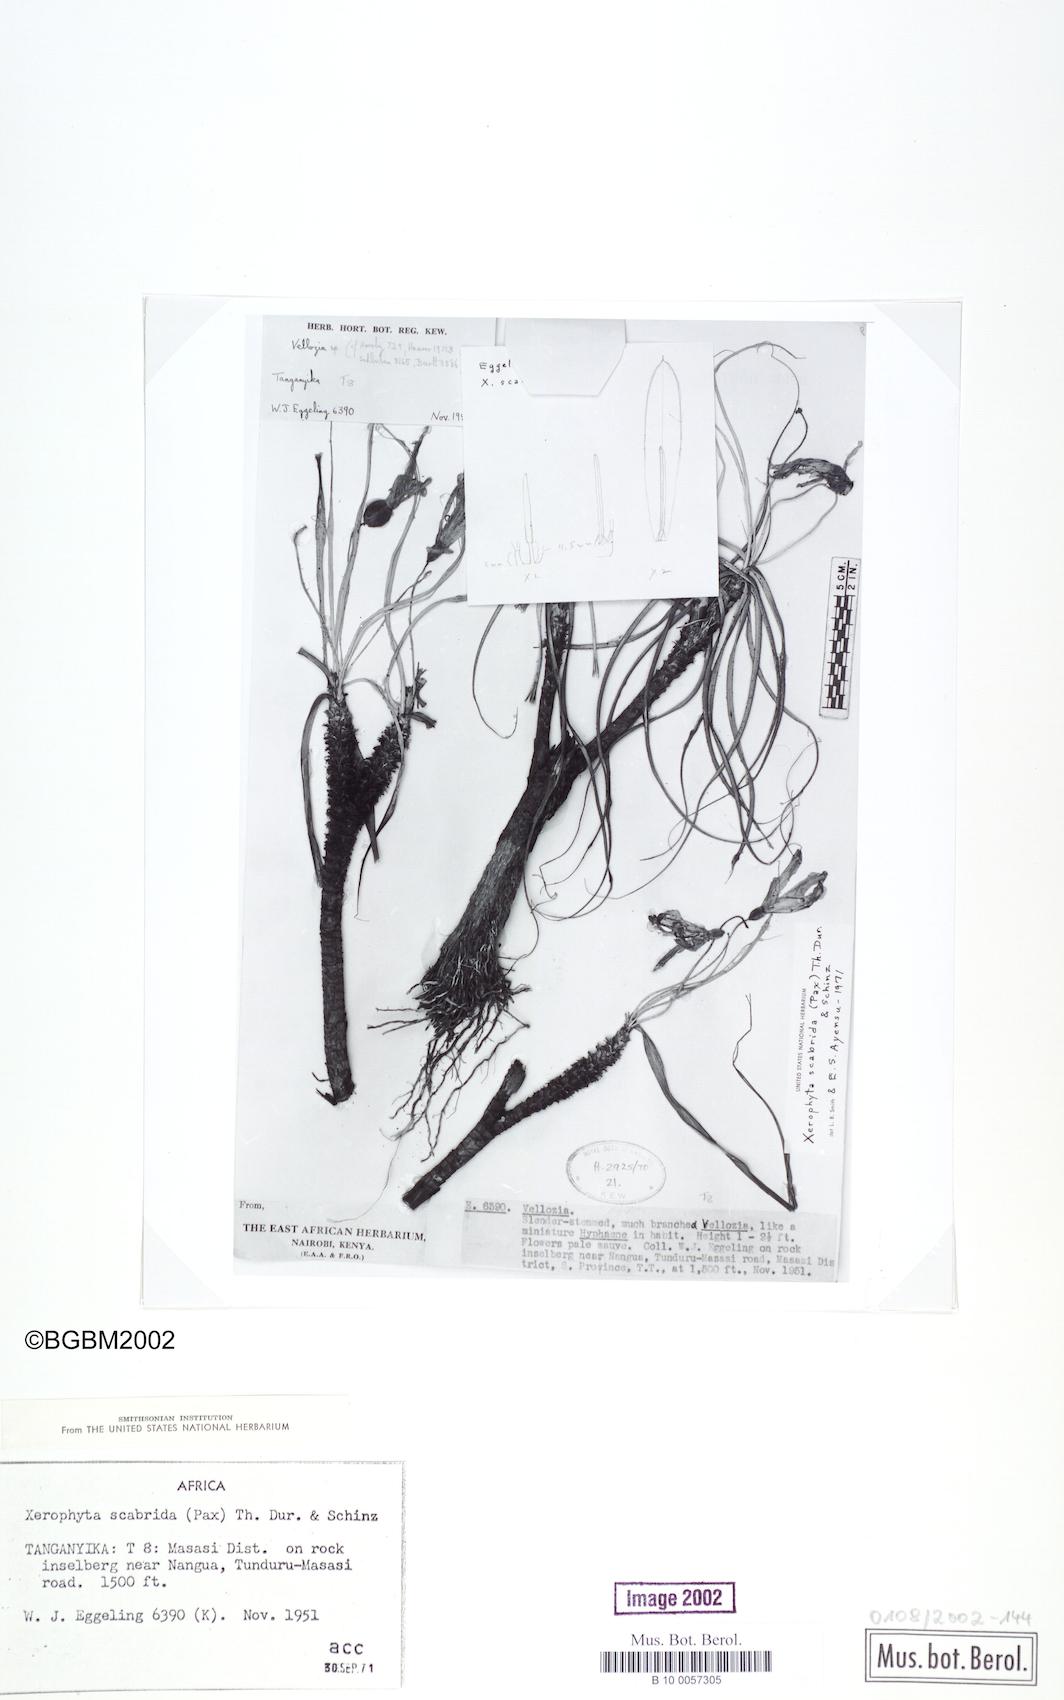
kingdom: Plantae
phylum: Tracheophyta
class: Liliopsida
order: Pandanales
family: Velloziaceae
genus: Xerophyta
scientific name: Xerophyta scabrida
